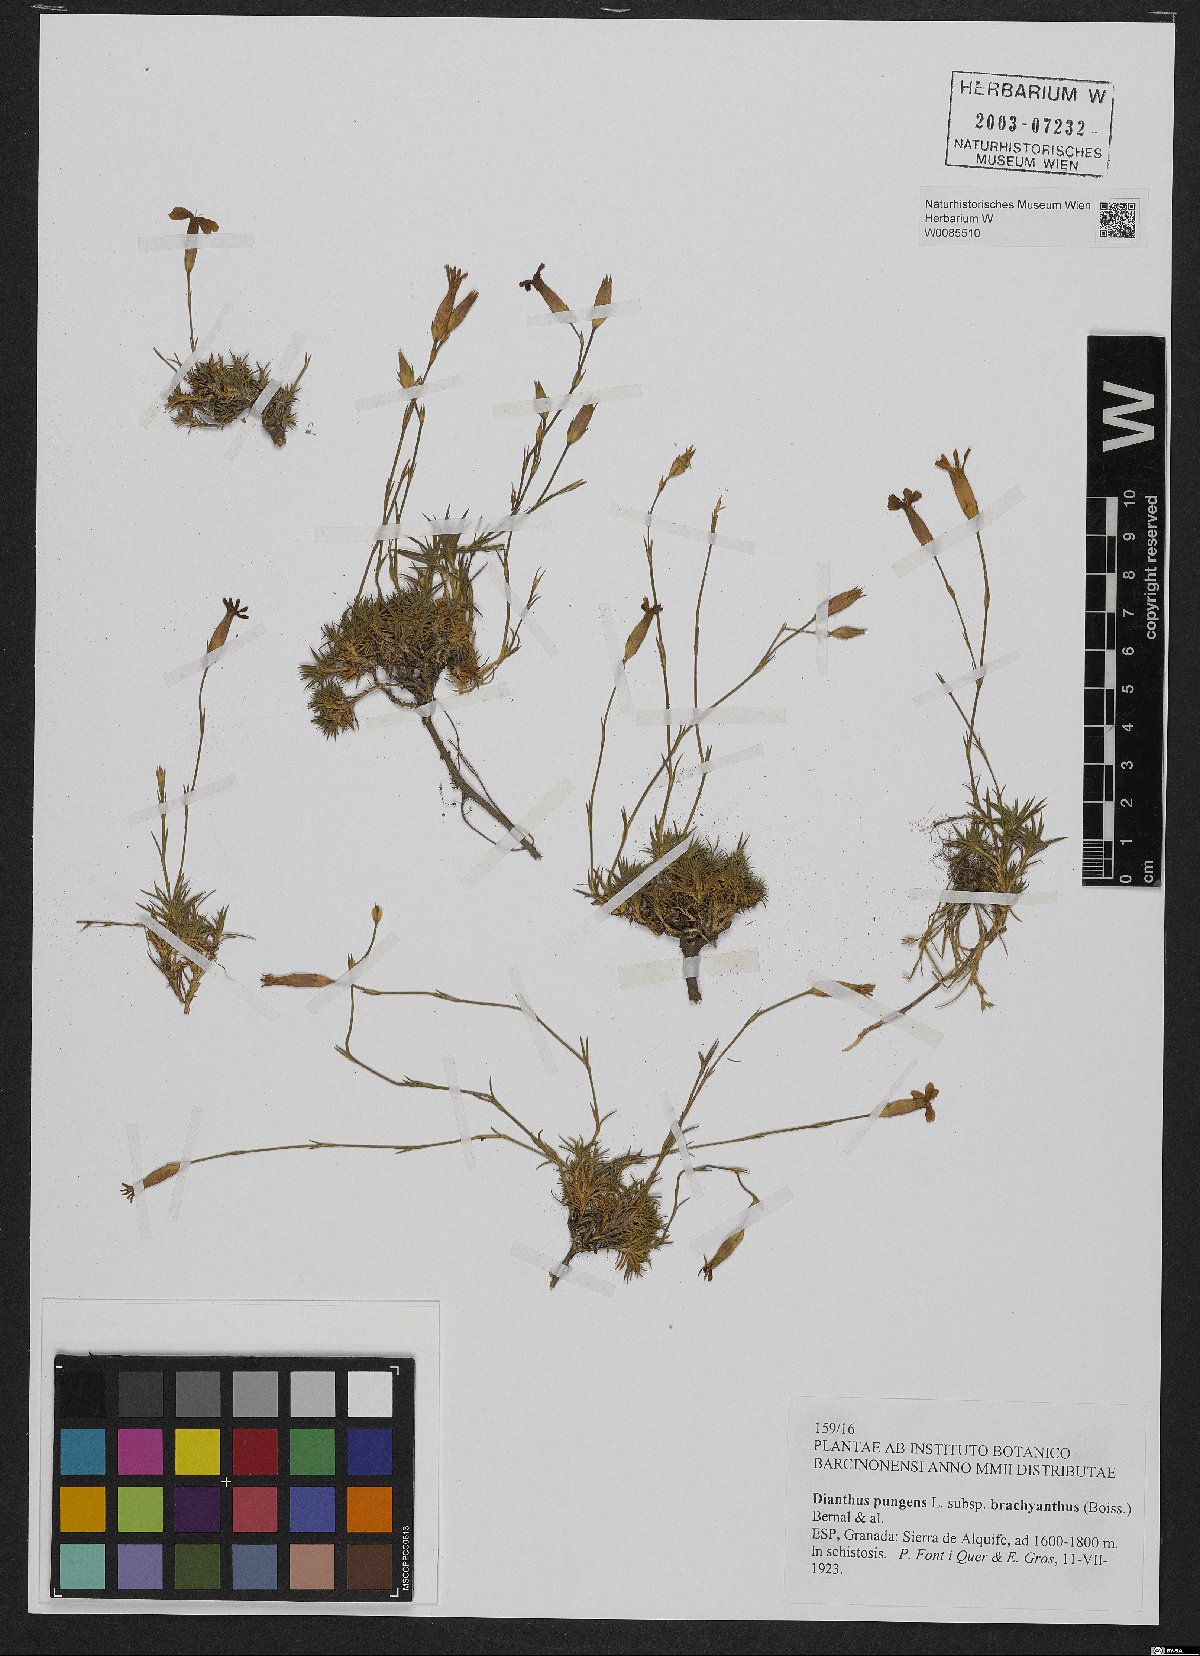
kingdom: Plantae
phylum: Tracheophyta
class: Magnoliopsida
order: Caryophyllales
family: Caryophyllaceae
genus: Dianthus
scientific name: Dianthus pungens
